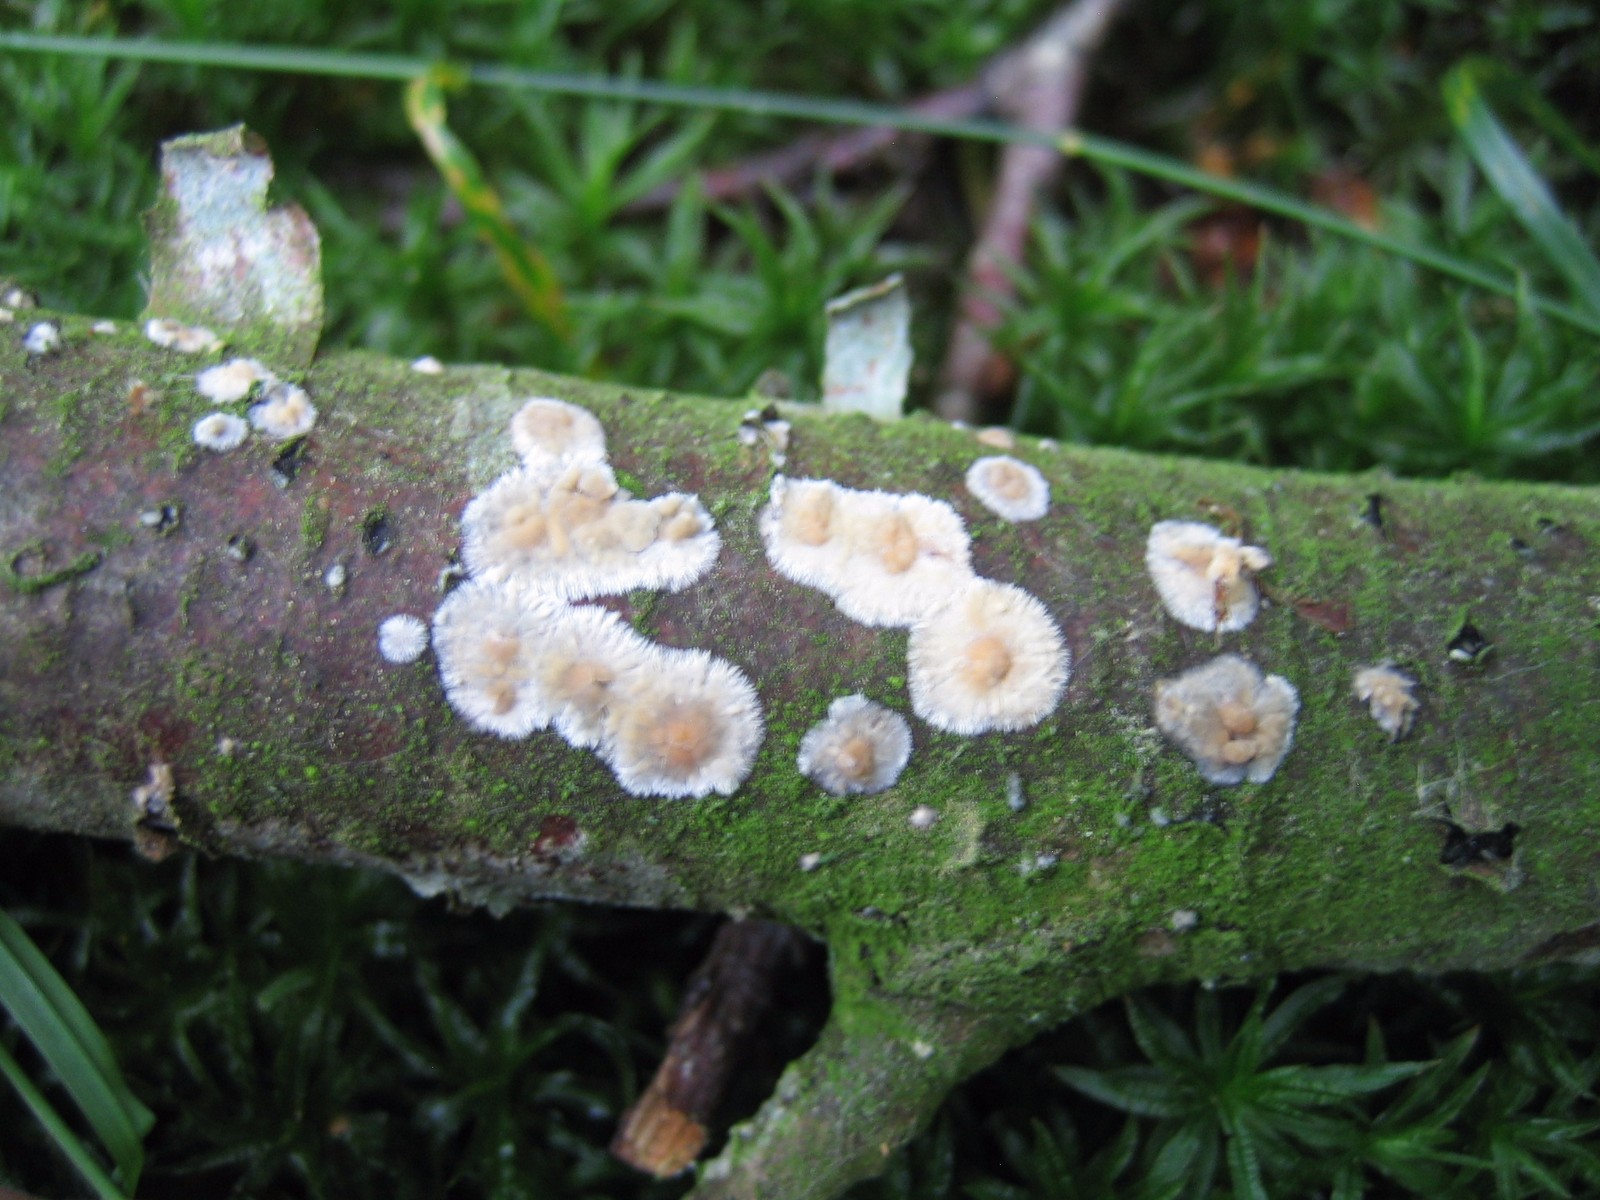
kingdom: Fungi
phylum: Basidiomycota
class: Agaricomycetes
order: Corticiales
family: Corticiaceae
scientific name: Corticiaceae
